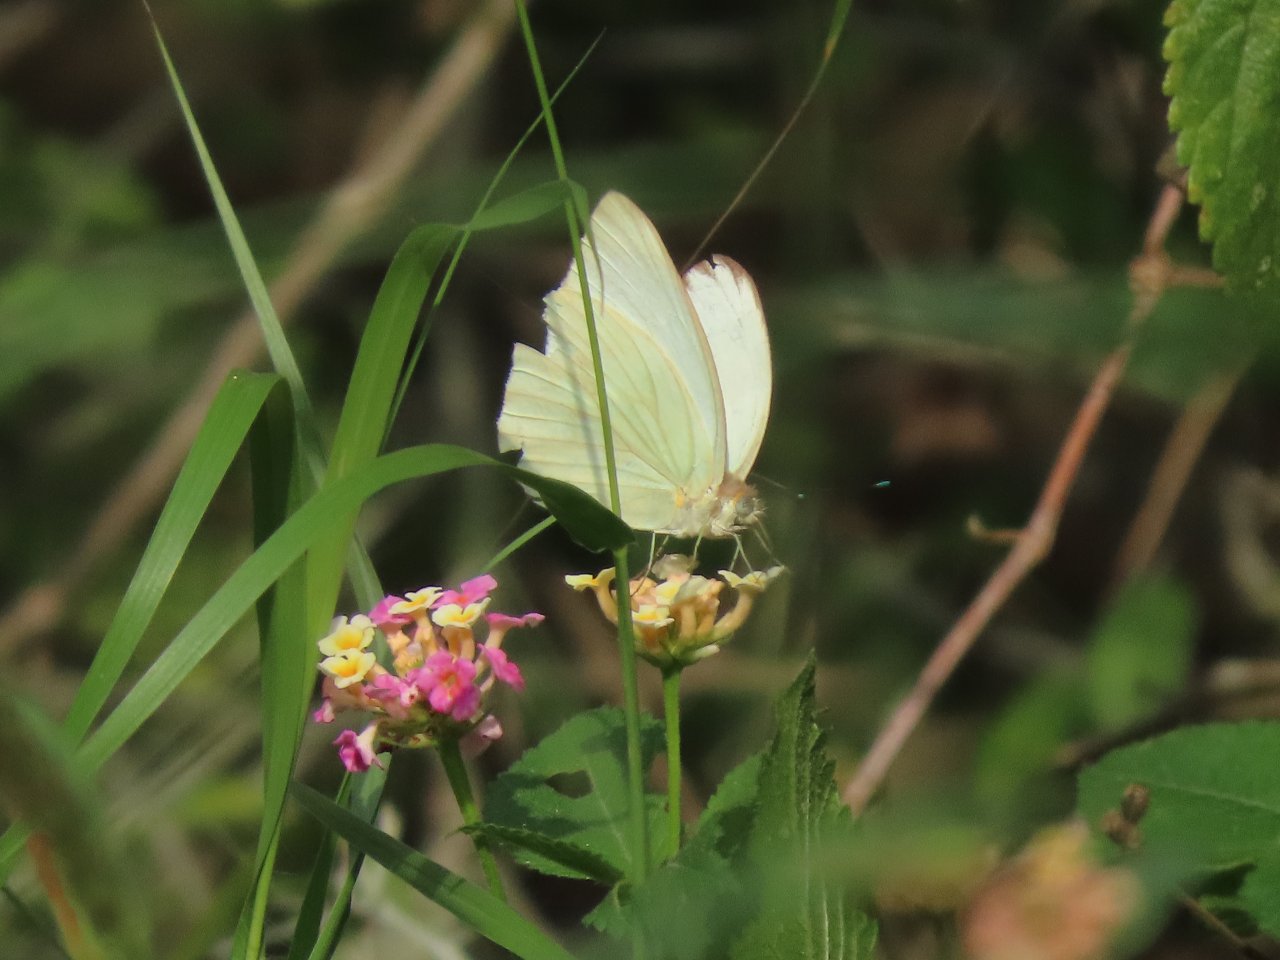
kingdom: Animalia
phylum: Arthropoda
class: Insecta
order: Lepidoptera
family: Pieridae
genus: Ascia
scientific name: Ascia monuste
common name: Great Southern White
